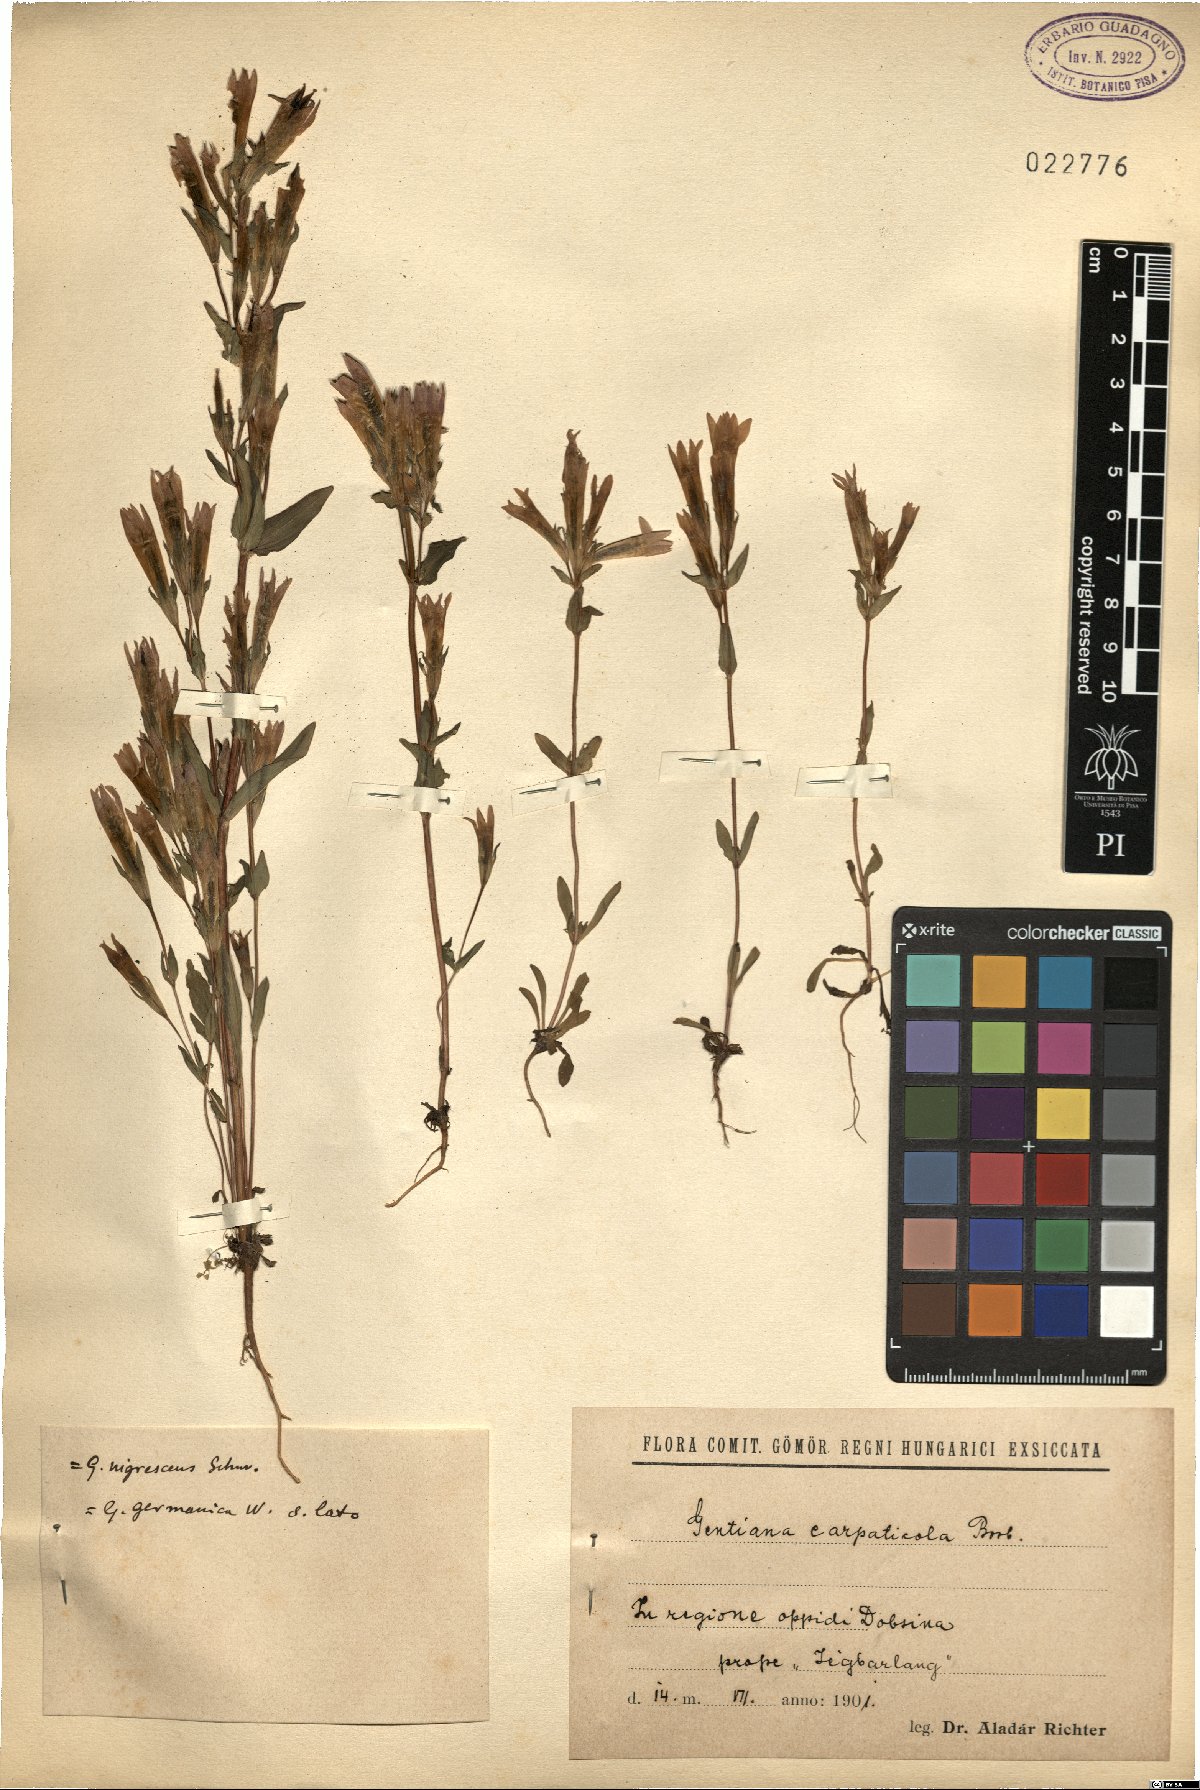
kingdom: Plantae
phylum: Tracheophyta
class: Magnoliopsida
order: Gentianales
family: Gentianaceae
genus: Gentianella
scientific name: Gentianella austriaca
